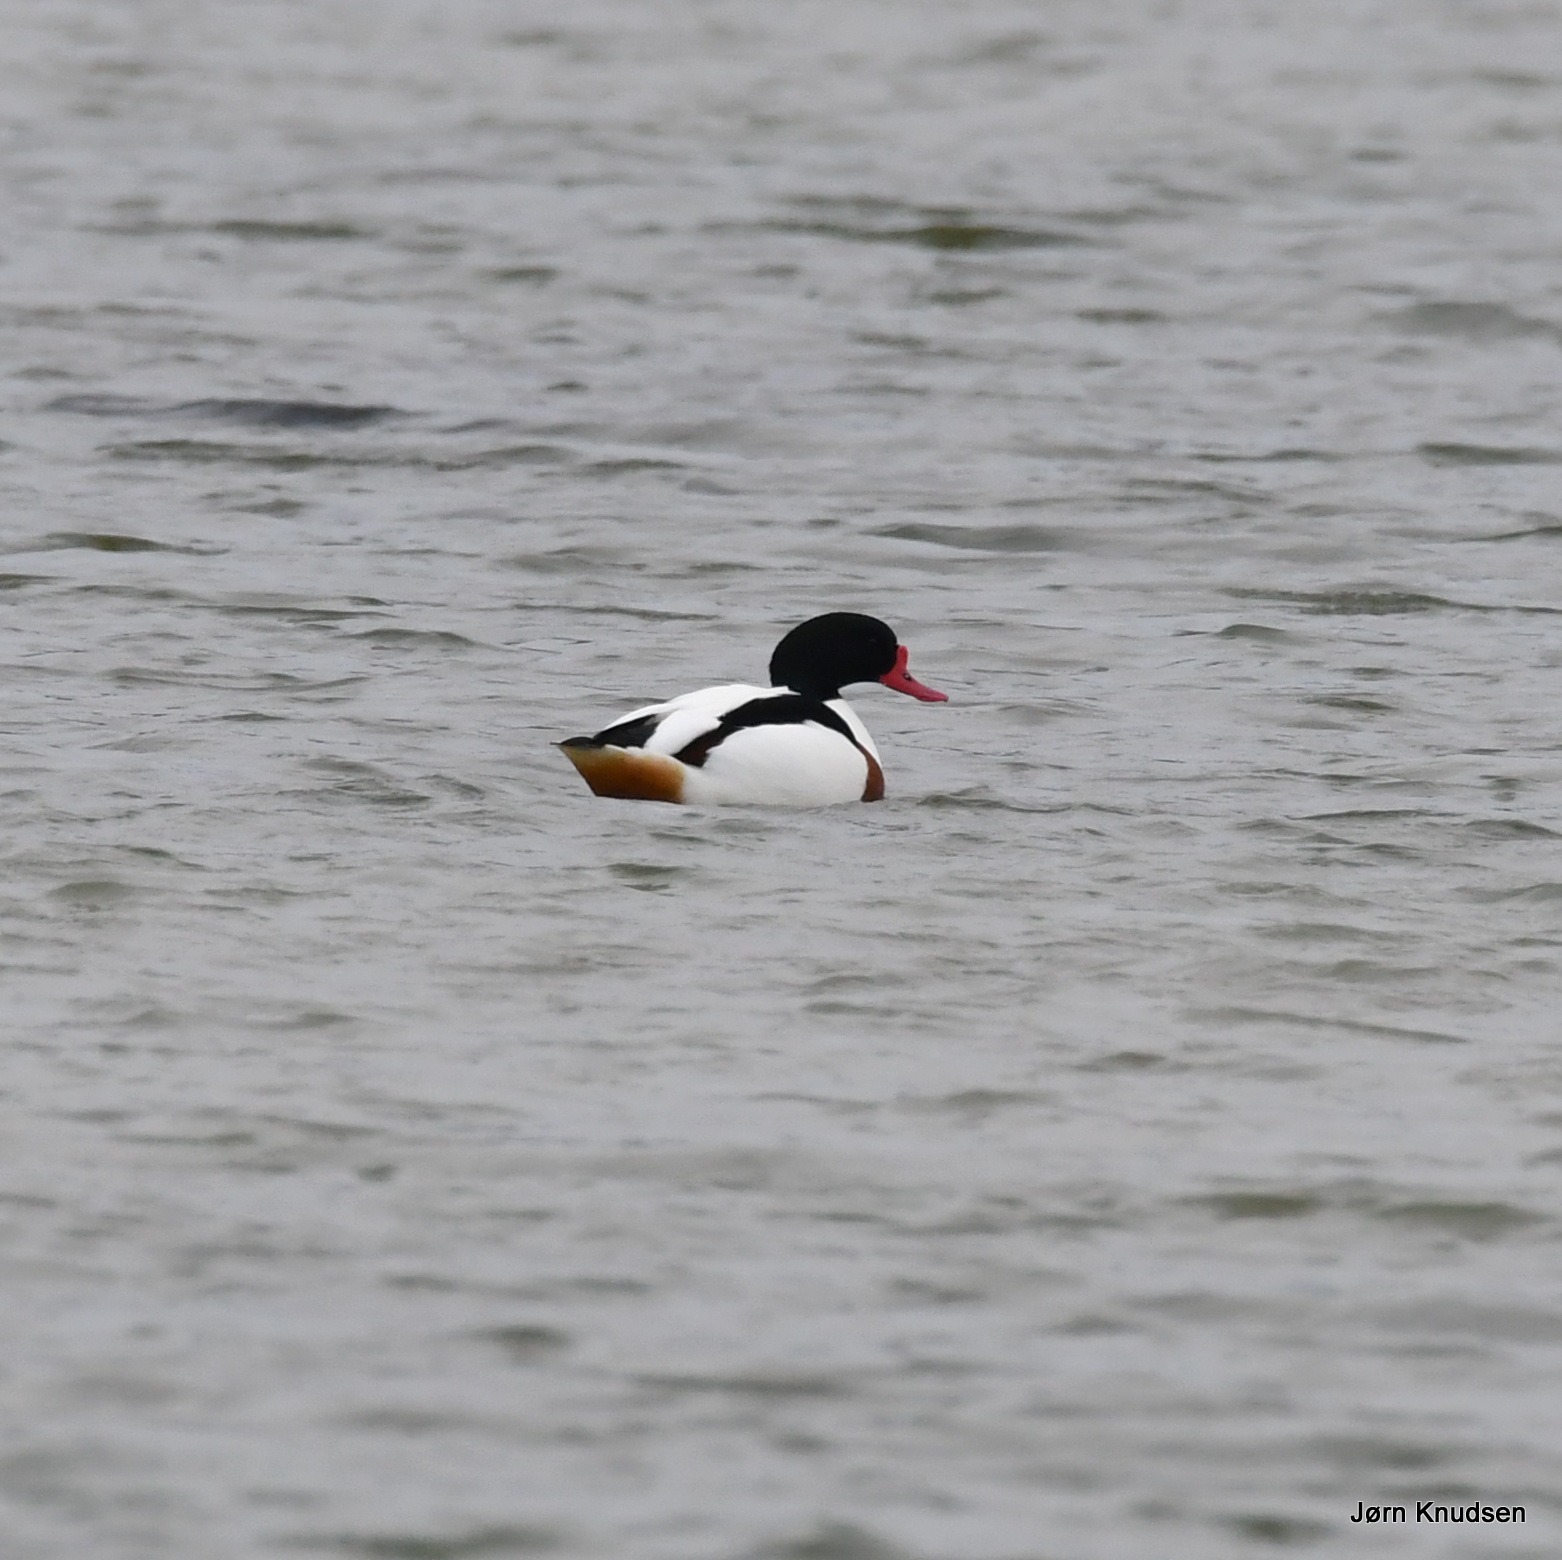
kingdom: Animalia
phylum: Chordata
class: Aves
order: Anseriformes
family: Anatidae
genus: Tadorna
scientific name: Tadorna tadorna
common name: Gravand
